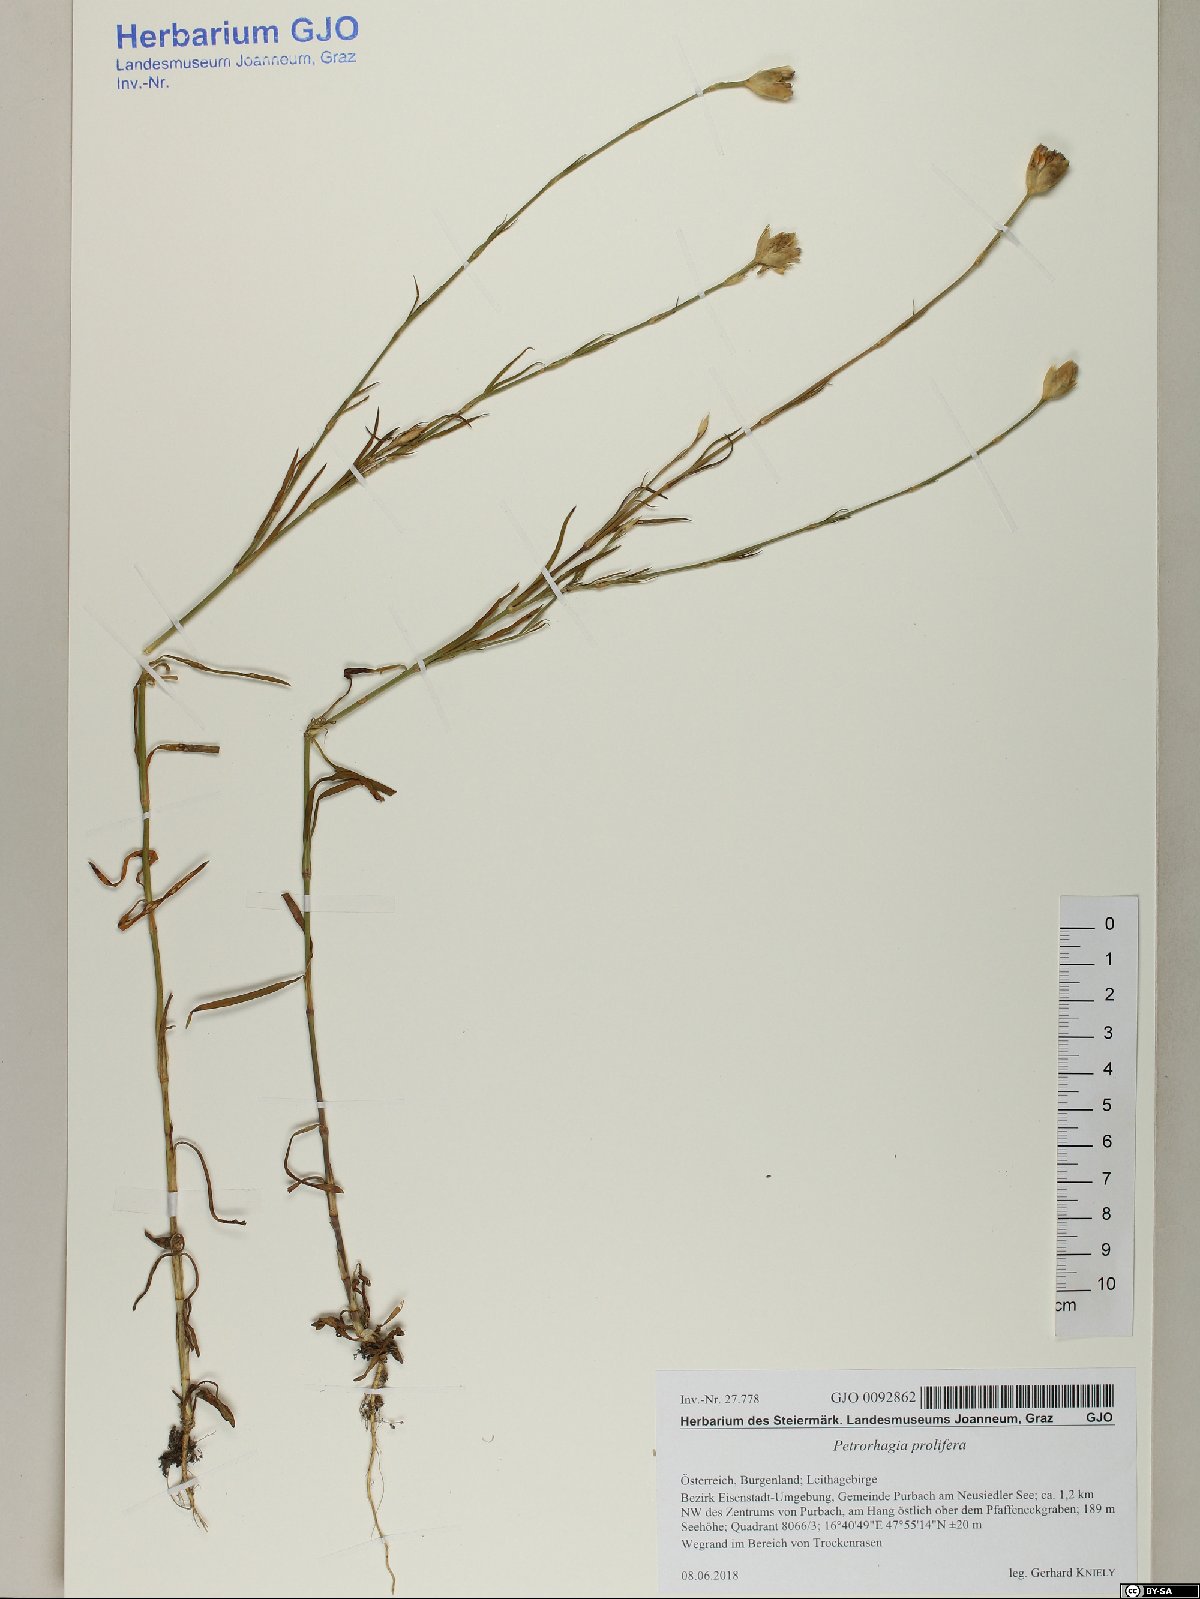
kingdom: Plantae
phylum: Tracheophyta
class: Magnoliopsida
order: Caryophyllales
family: Caryophyllaceae
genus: Petrorhagia
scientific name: Petrorhagia prolifera
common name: Proliferous pink
